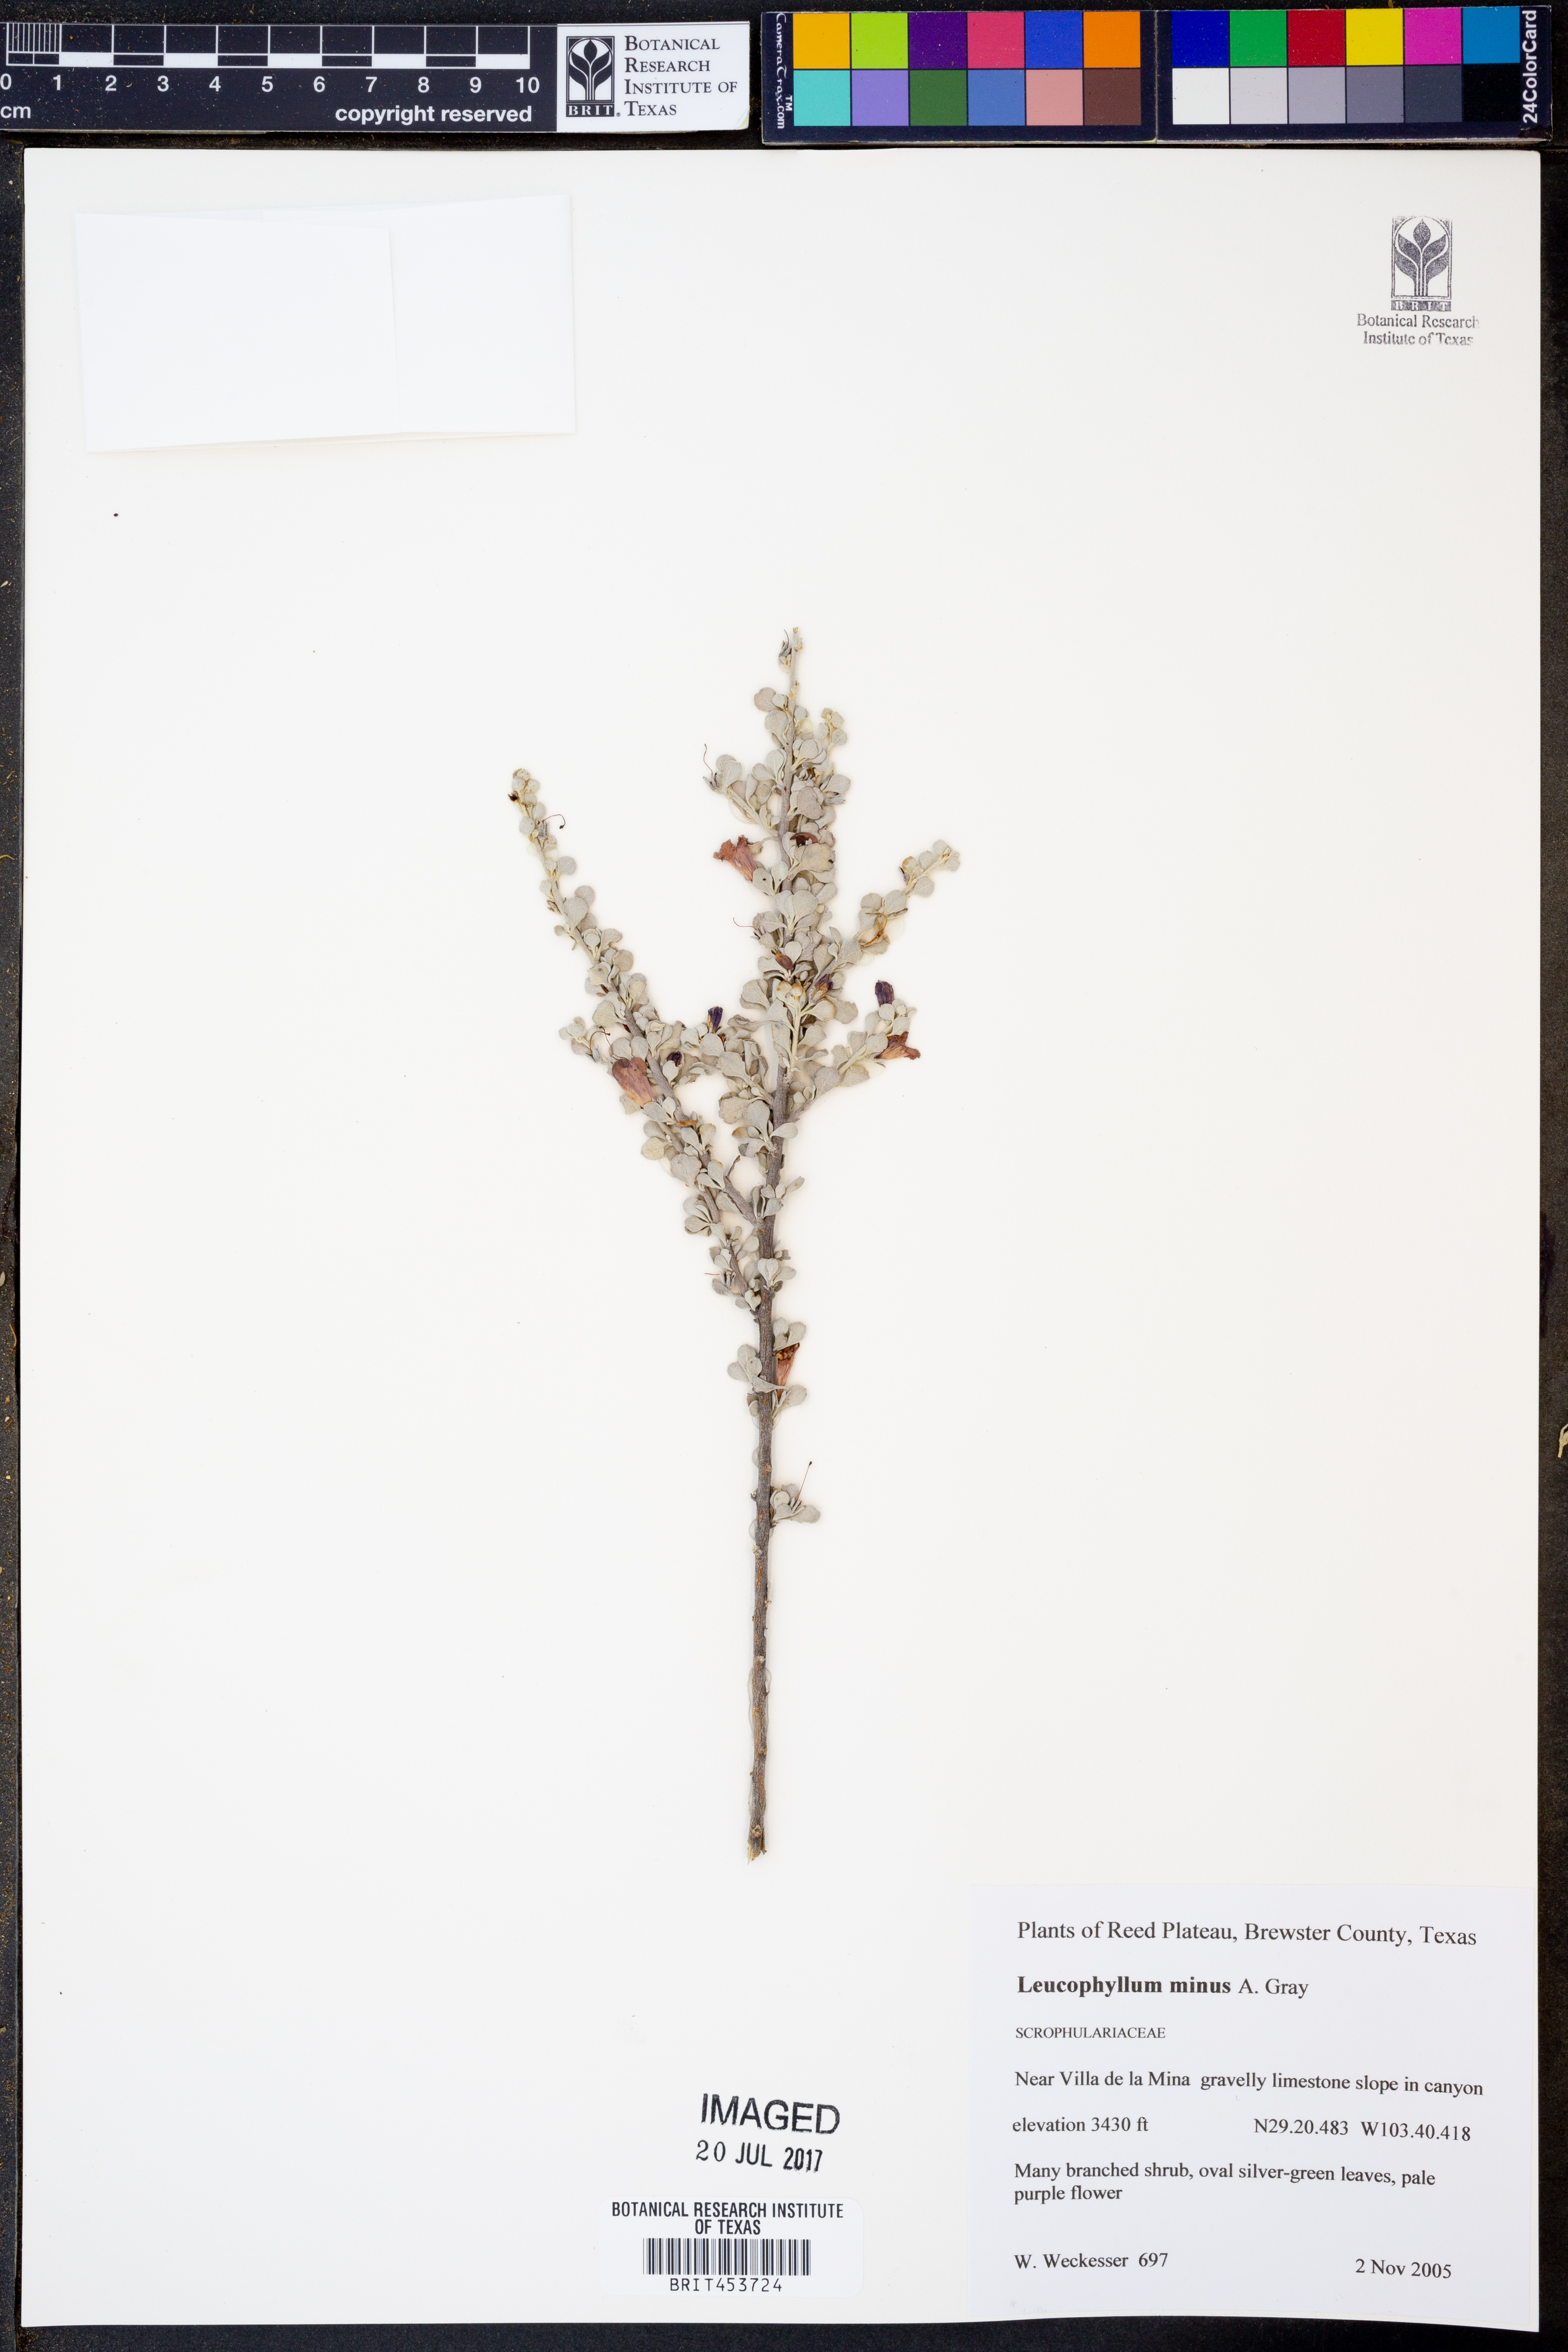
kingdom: Plantae
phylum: Tracheophyta
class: Magnoliopsida
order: Lamiales
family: Scrophulariaceae
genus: Leucophyllum
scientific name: Leucophyllum minus
